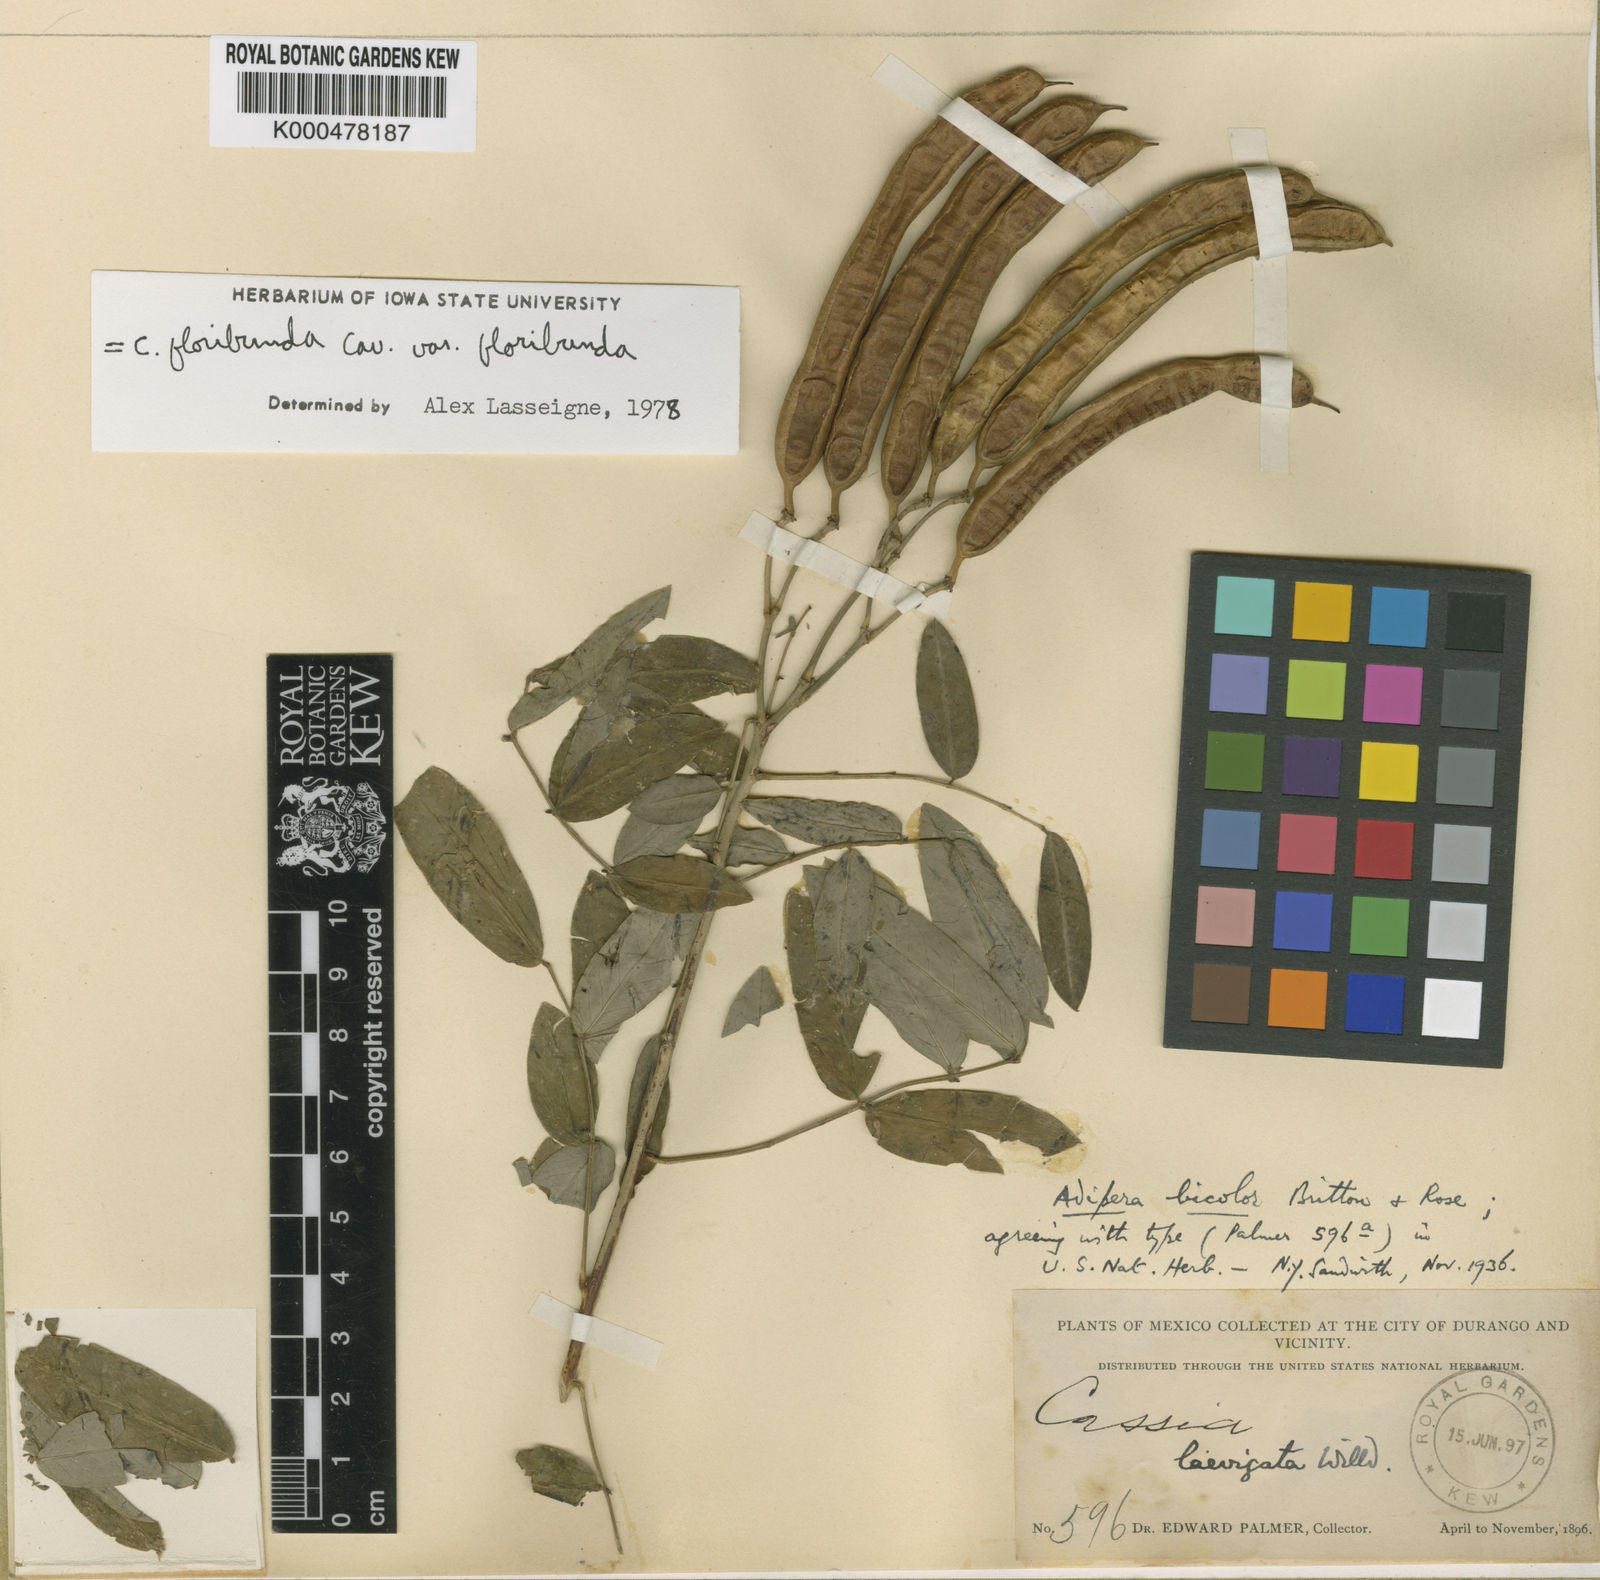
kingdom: Plantae
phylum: Tracheophyta
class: Magnoliopsida
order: Fabales
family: Fabaceae
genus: Senna
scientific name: Senna floribunda
